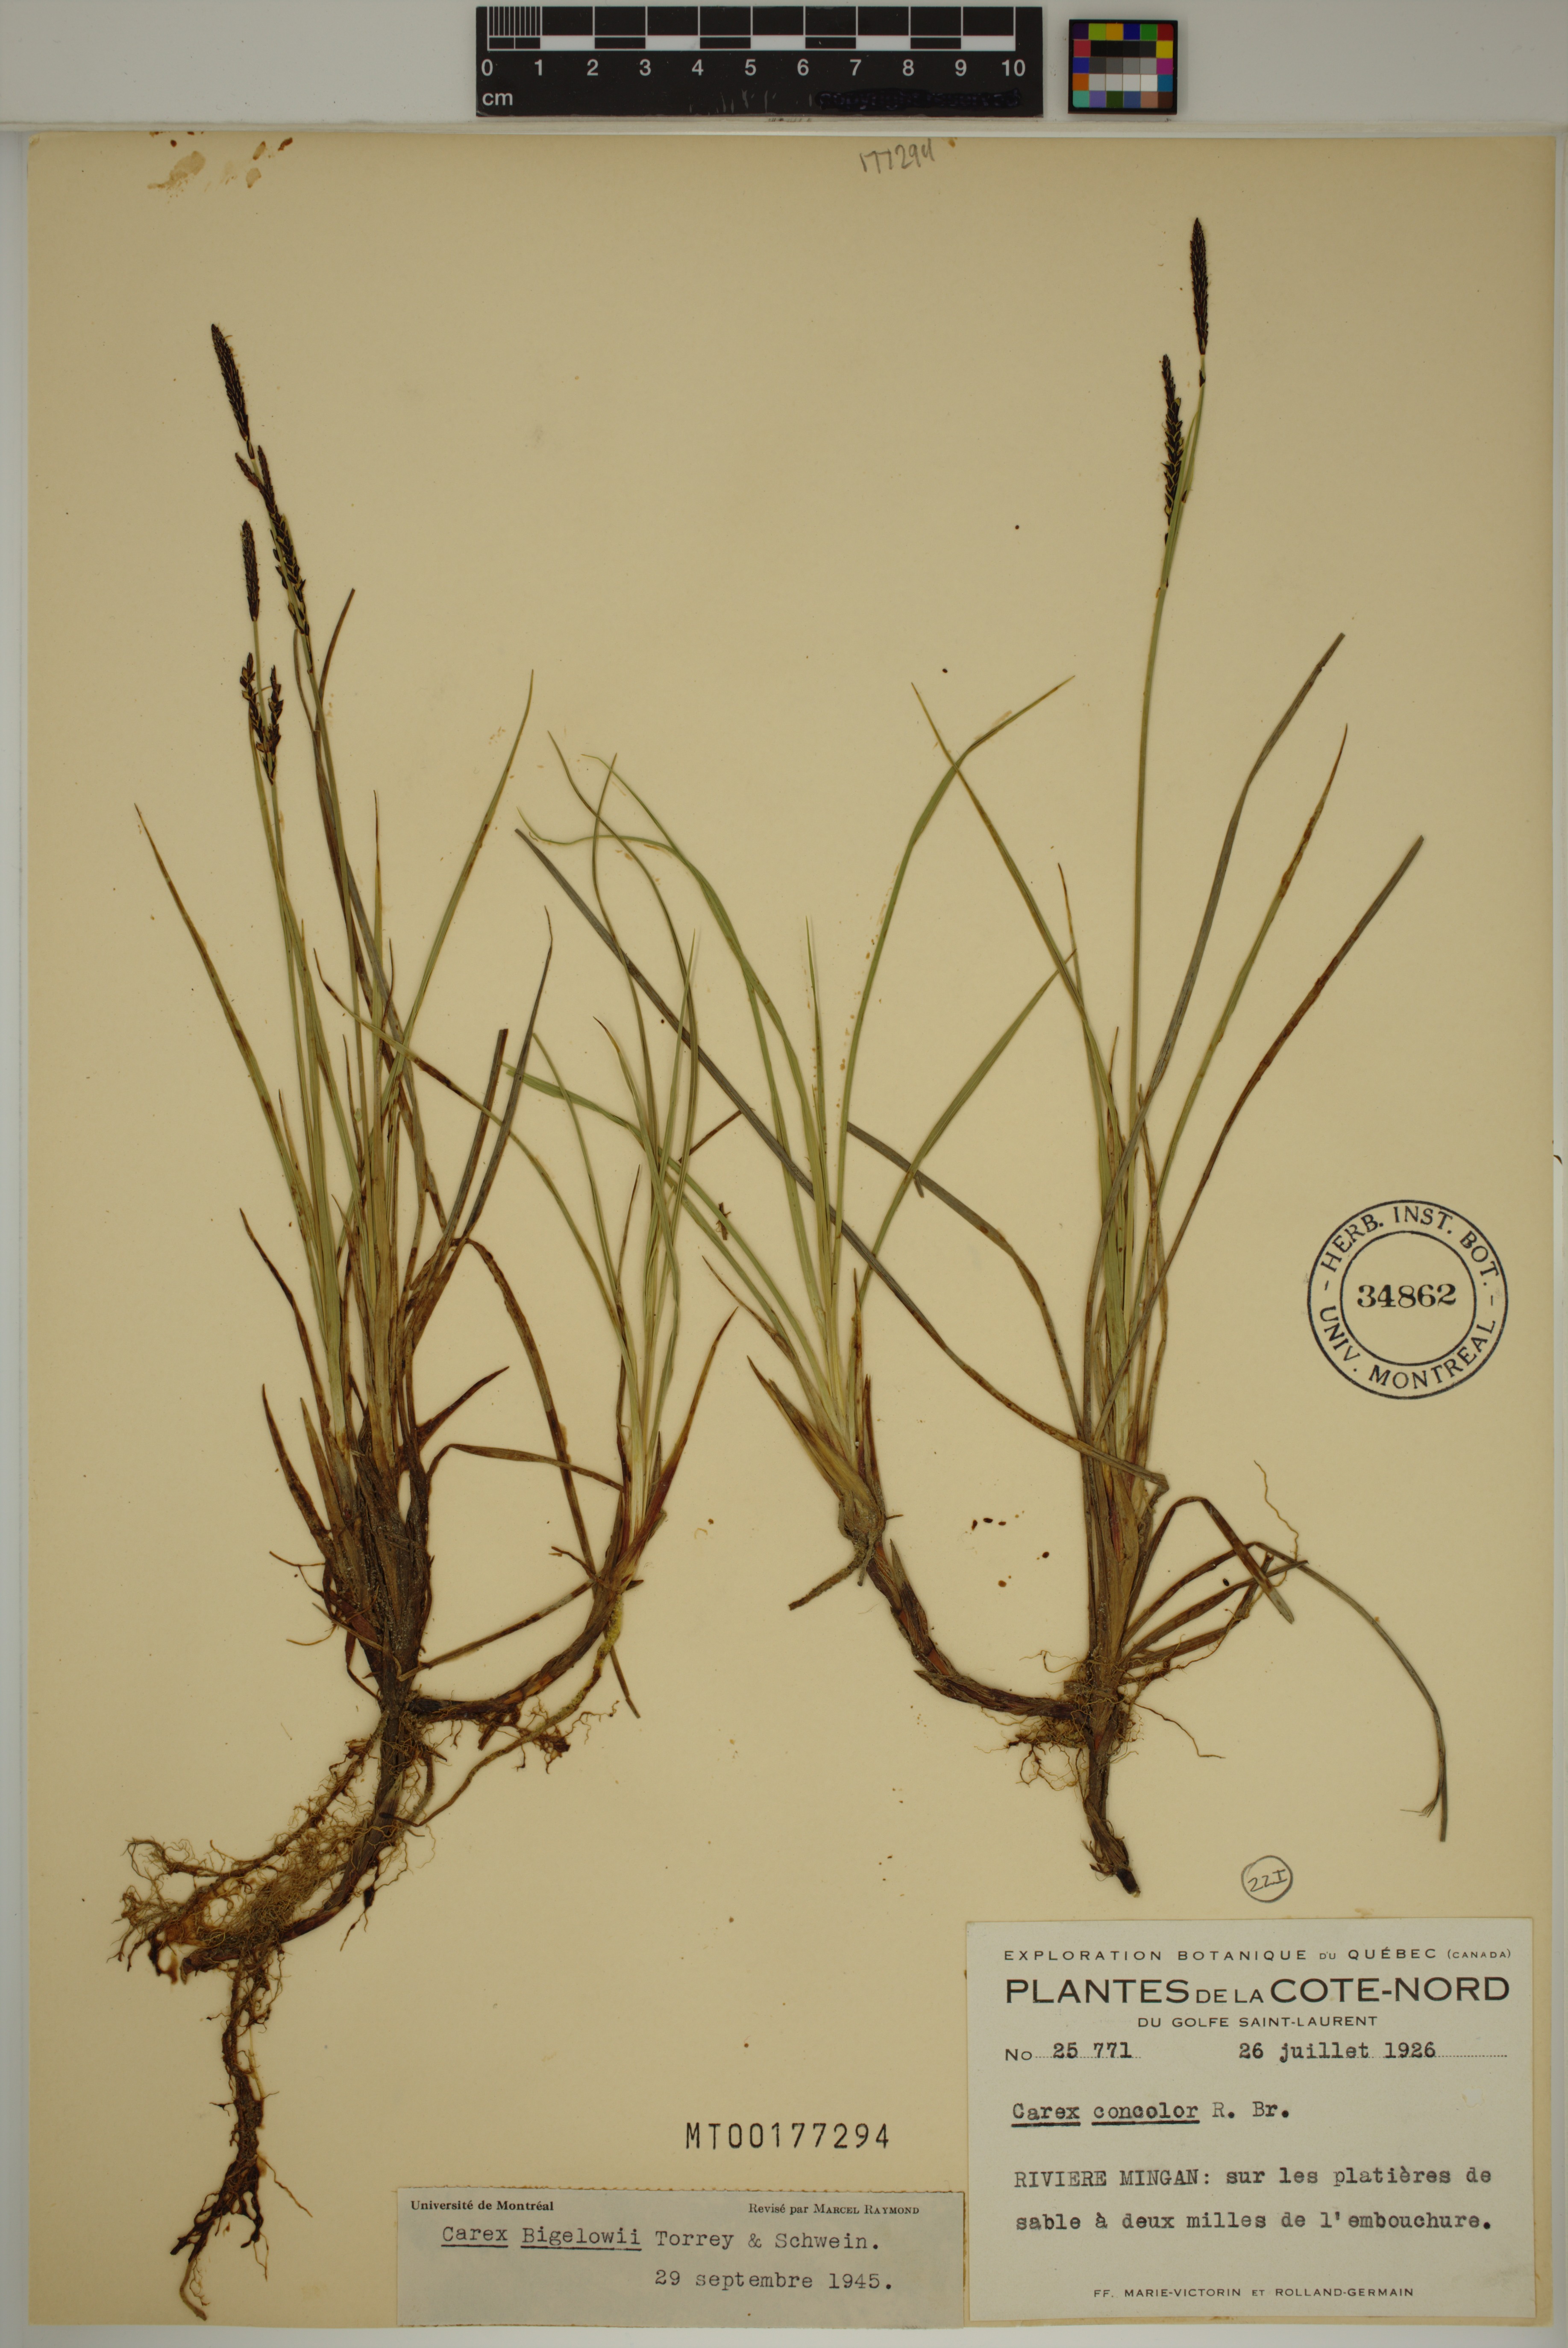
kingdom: Plantae
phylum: Tracheophyta
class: Liliopsida
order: Poales
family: Cyperaceae
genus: Carex
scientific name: Carex bigelowii
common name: Stiff sedge
